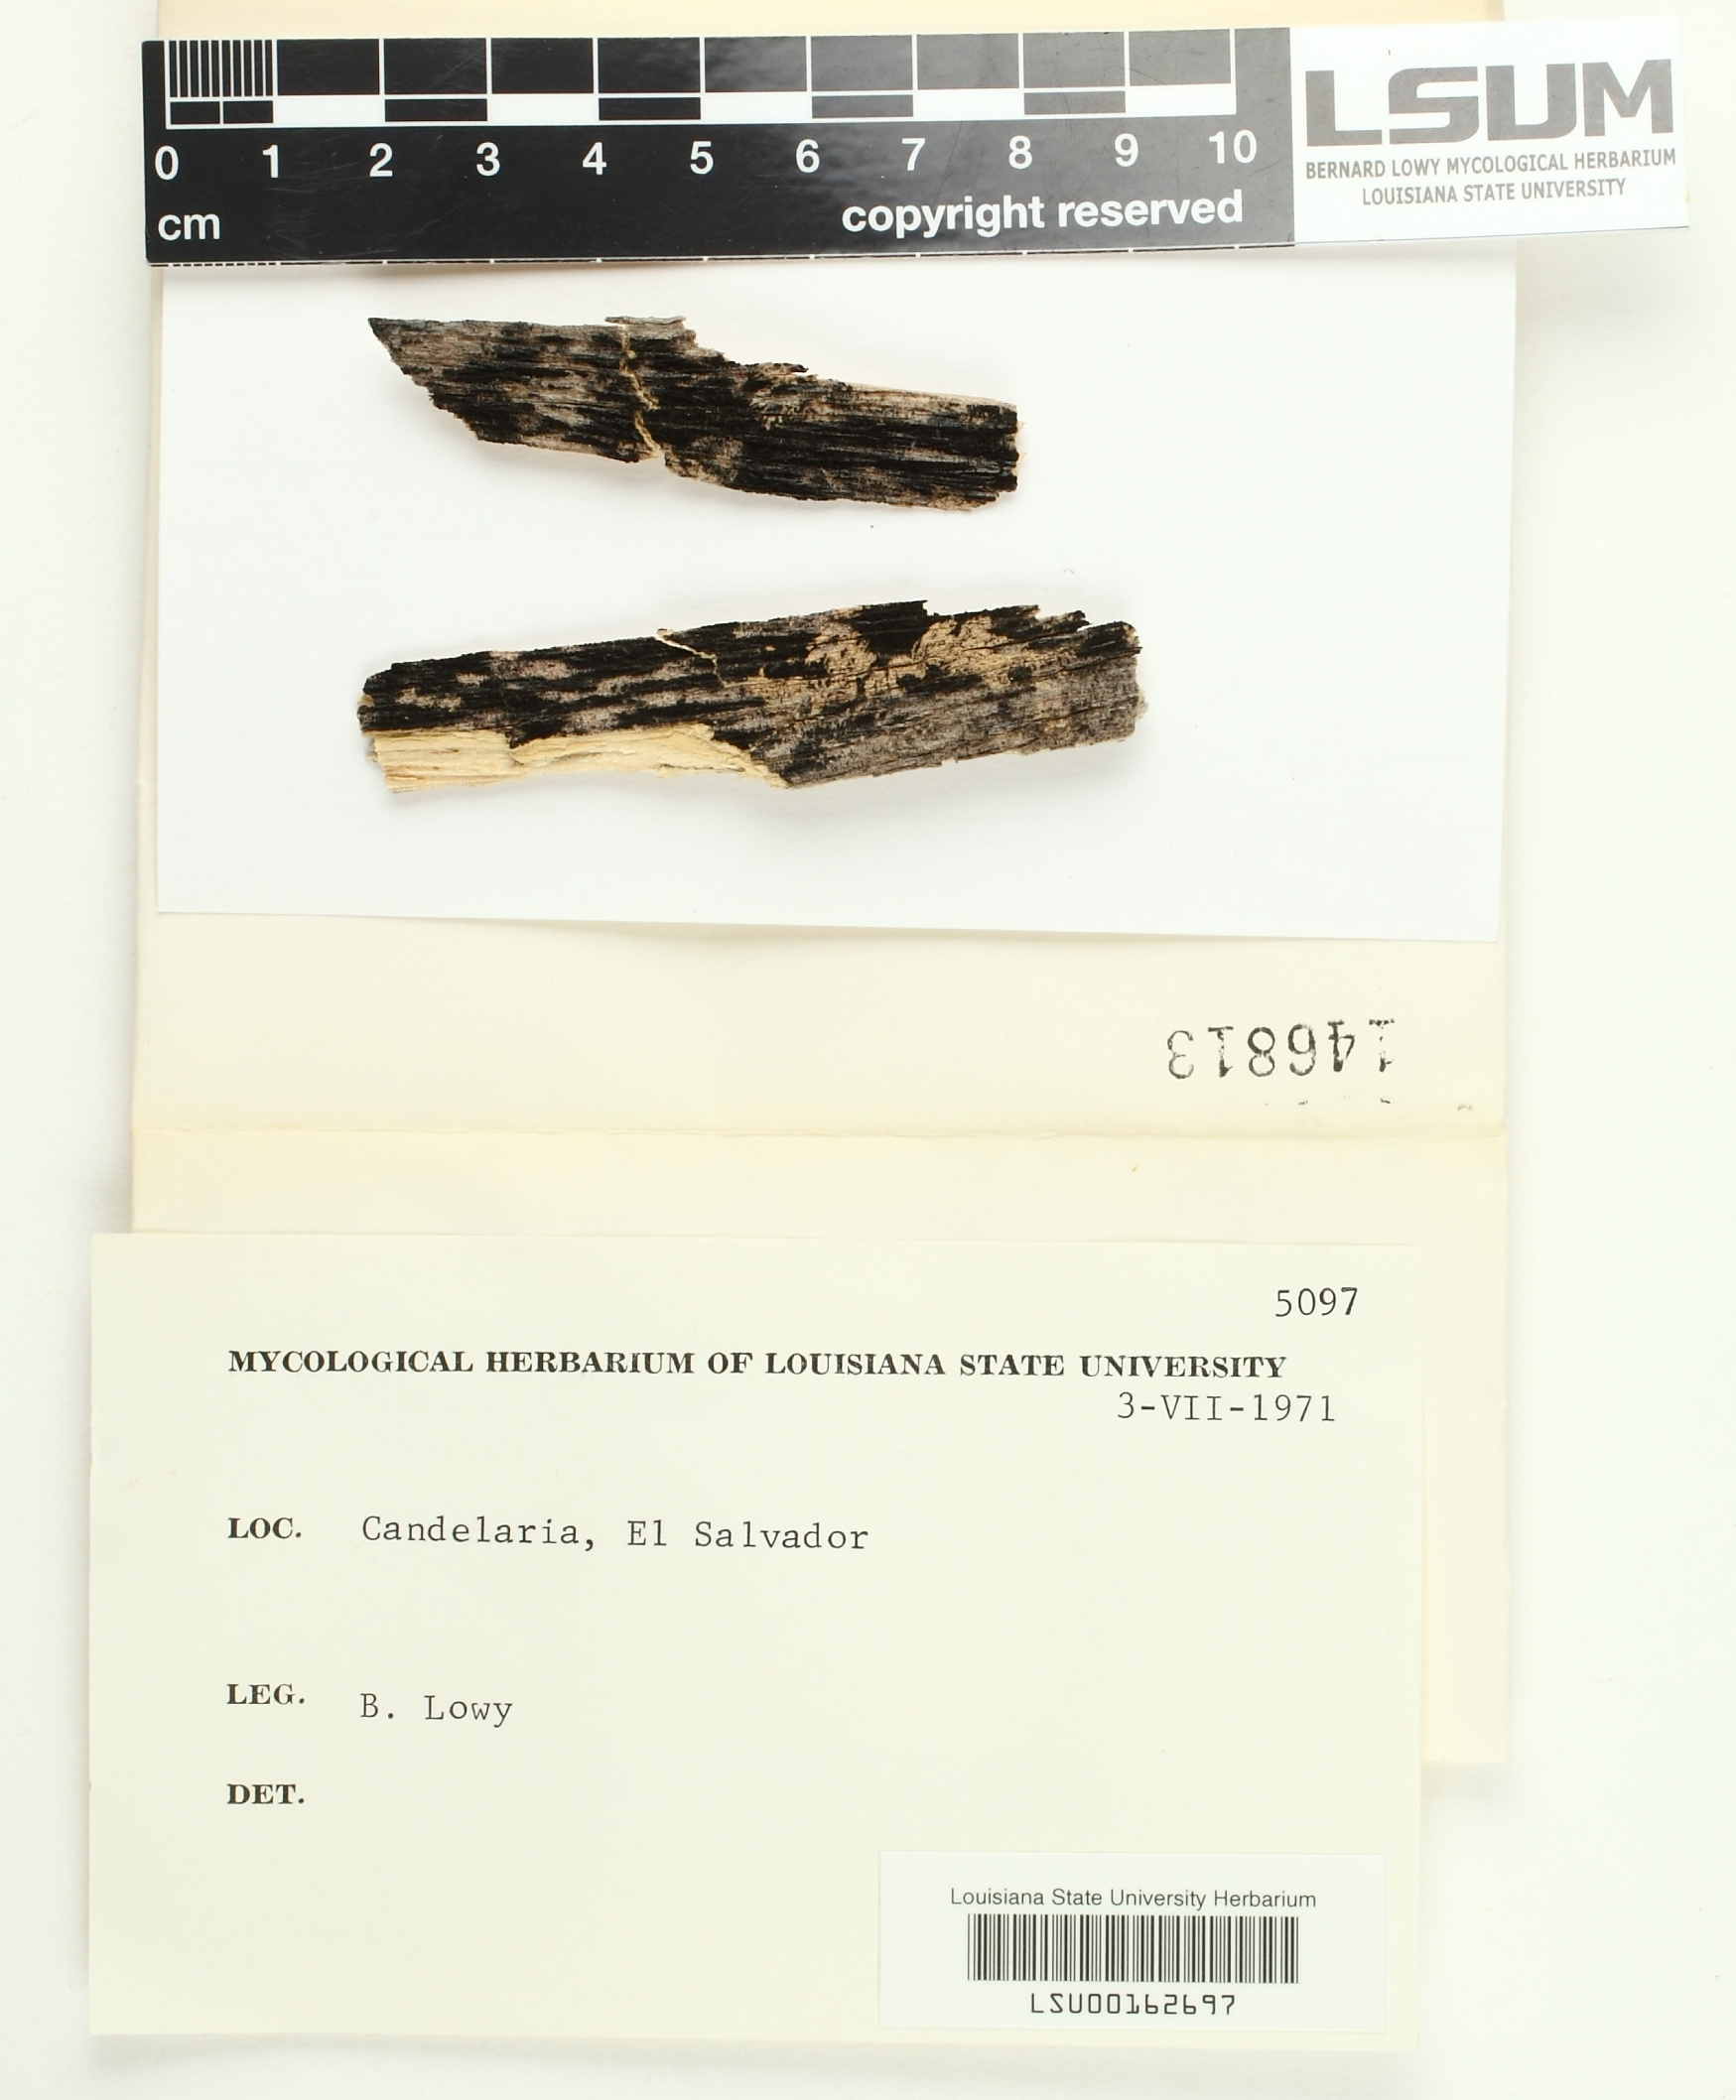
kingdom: Fungi
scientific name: Fungi
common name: Fungi
